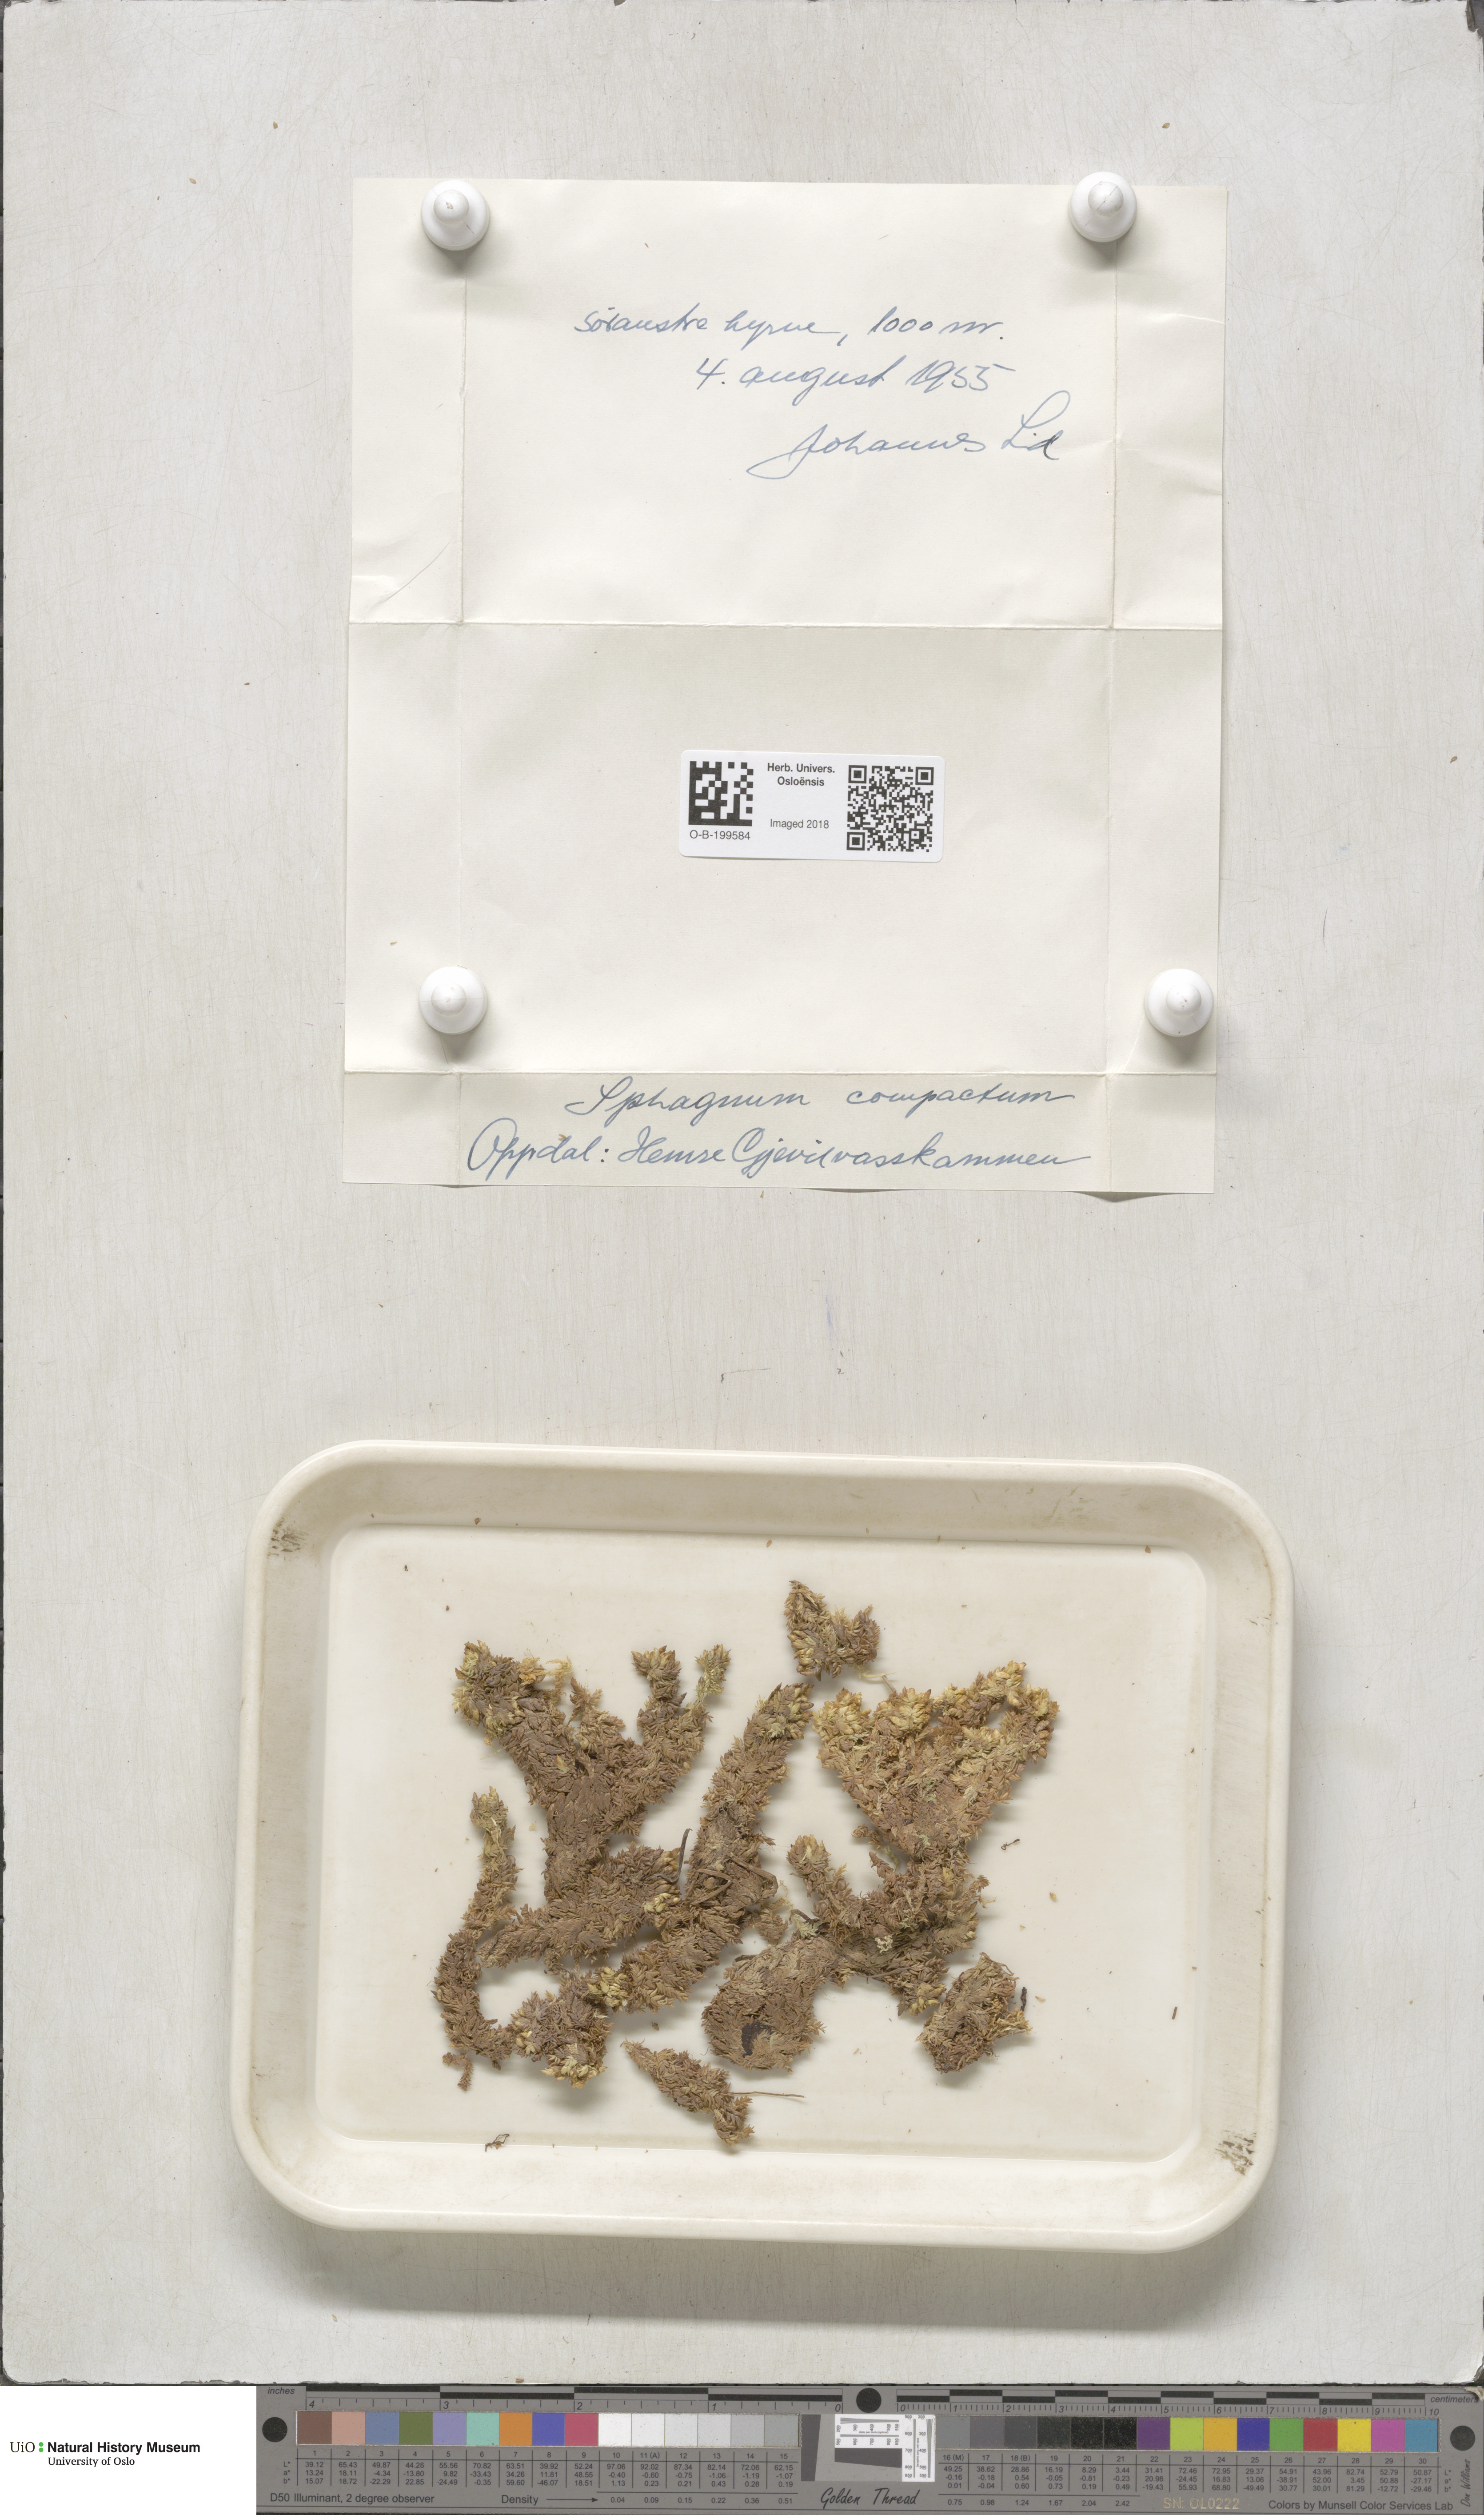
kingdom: Plantae
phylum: Bryophyta
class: Sphagnopsida
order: Sphagnales
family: Sphagnaceae
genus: Sphagnum
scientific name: Sphagnum compactum
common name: Compact peat moss
